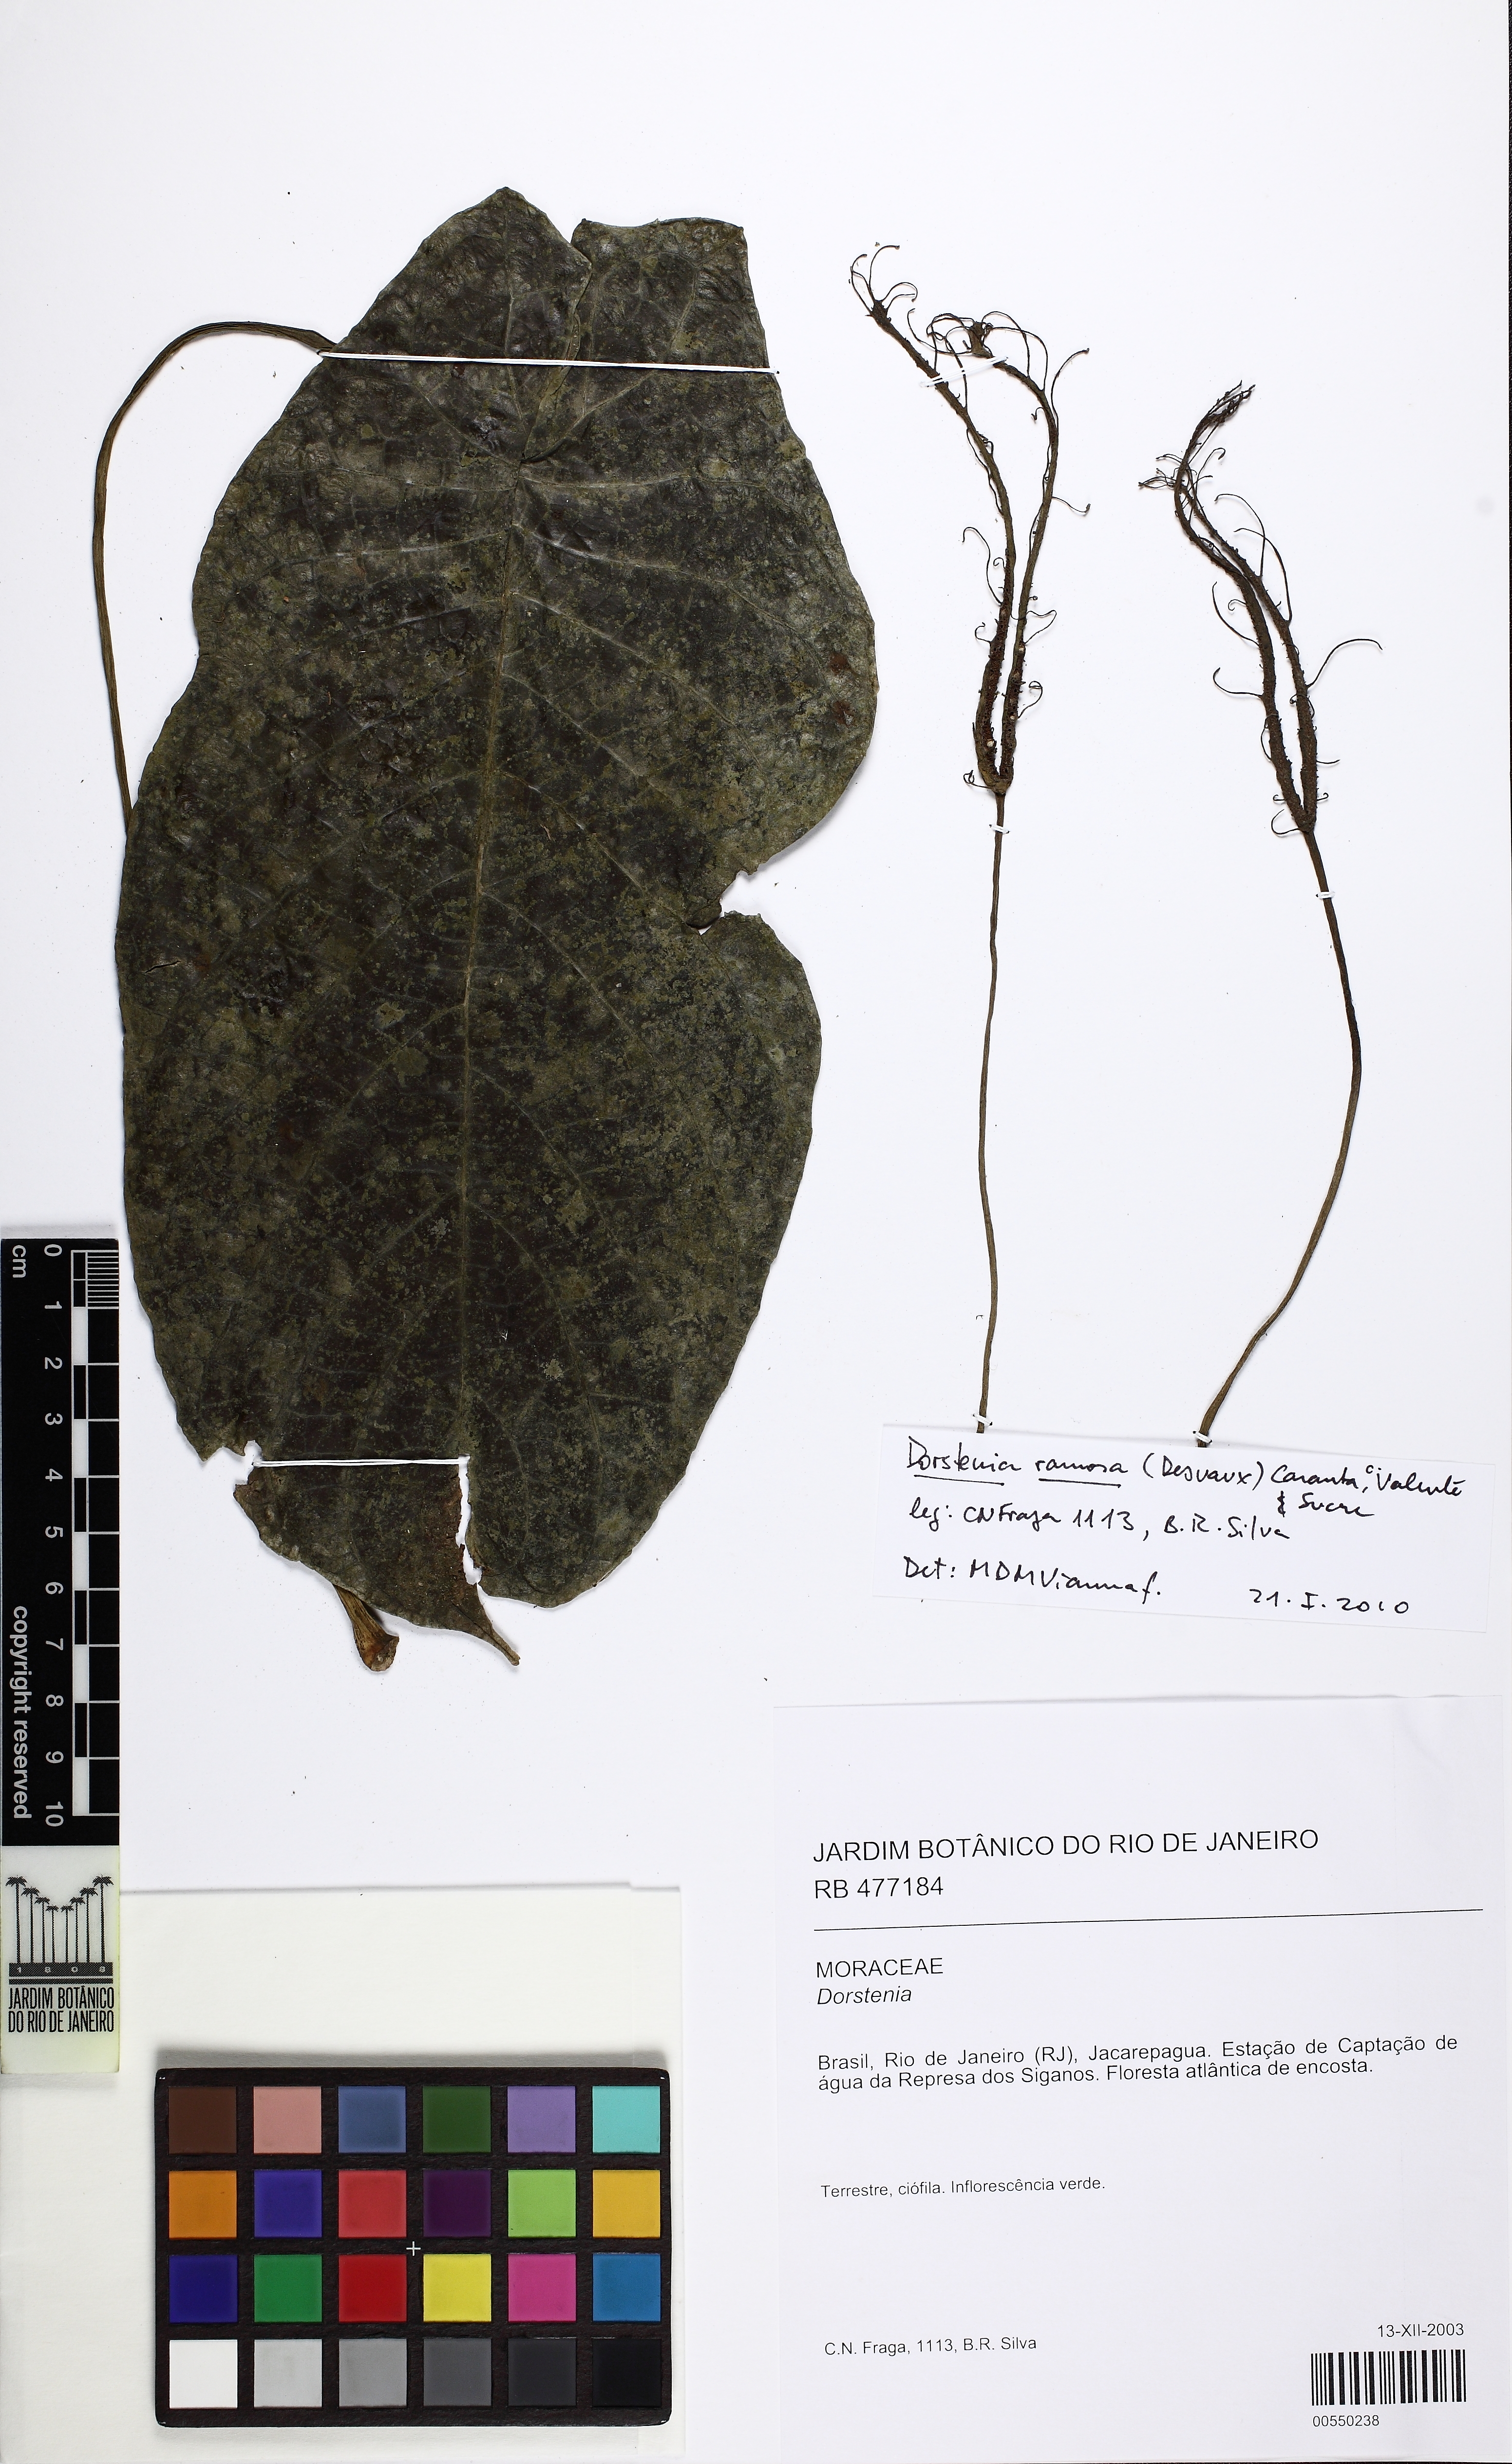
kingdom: Plantae
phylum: Tracheophyta
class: Magnoliopsida
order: Rosales
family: Moraceae
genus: Dorstenia
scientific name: Dorstenia ramosa
